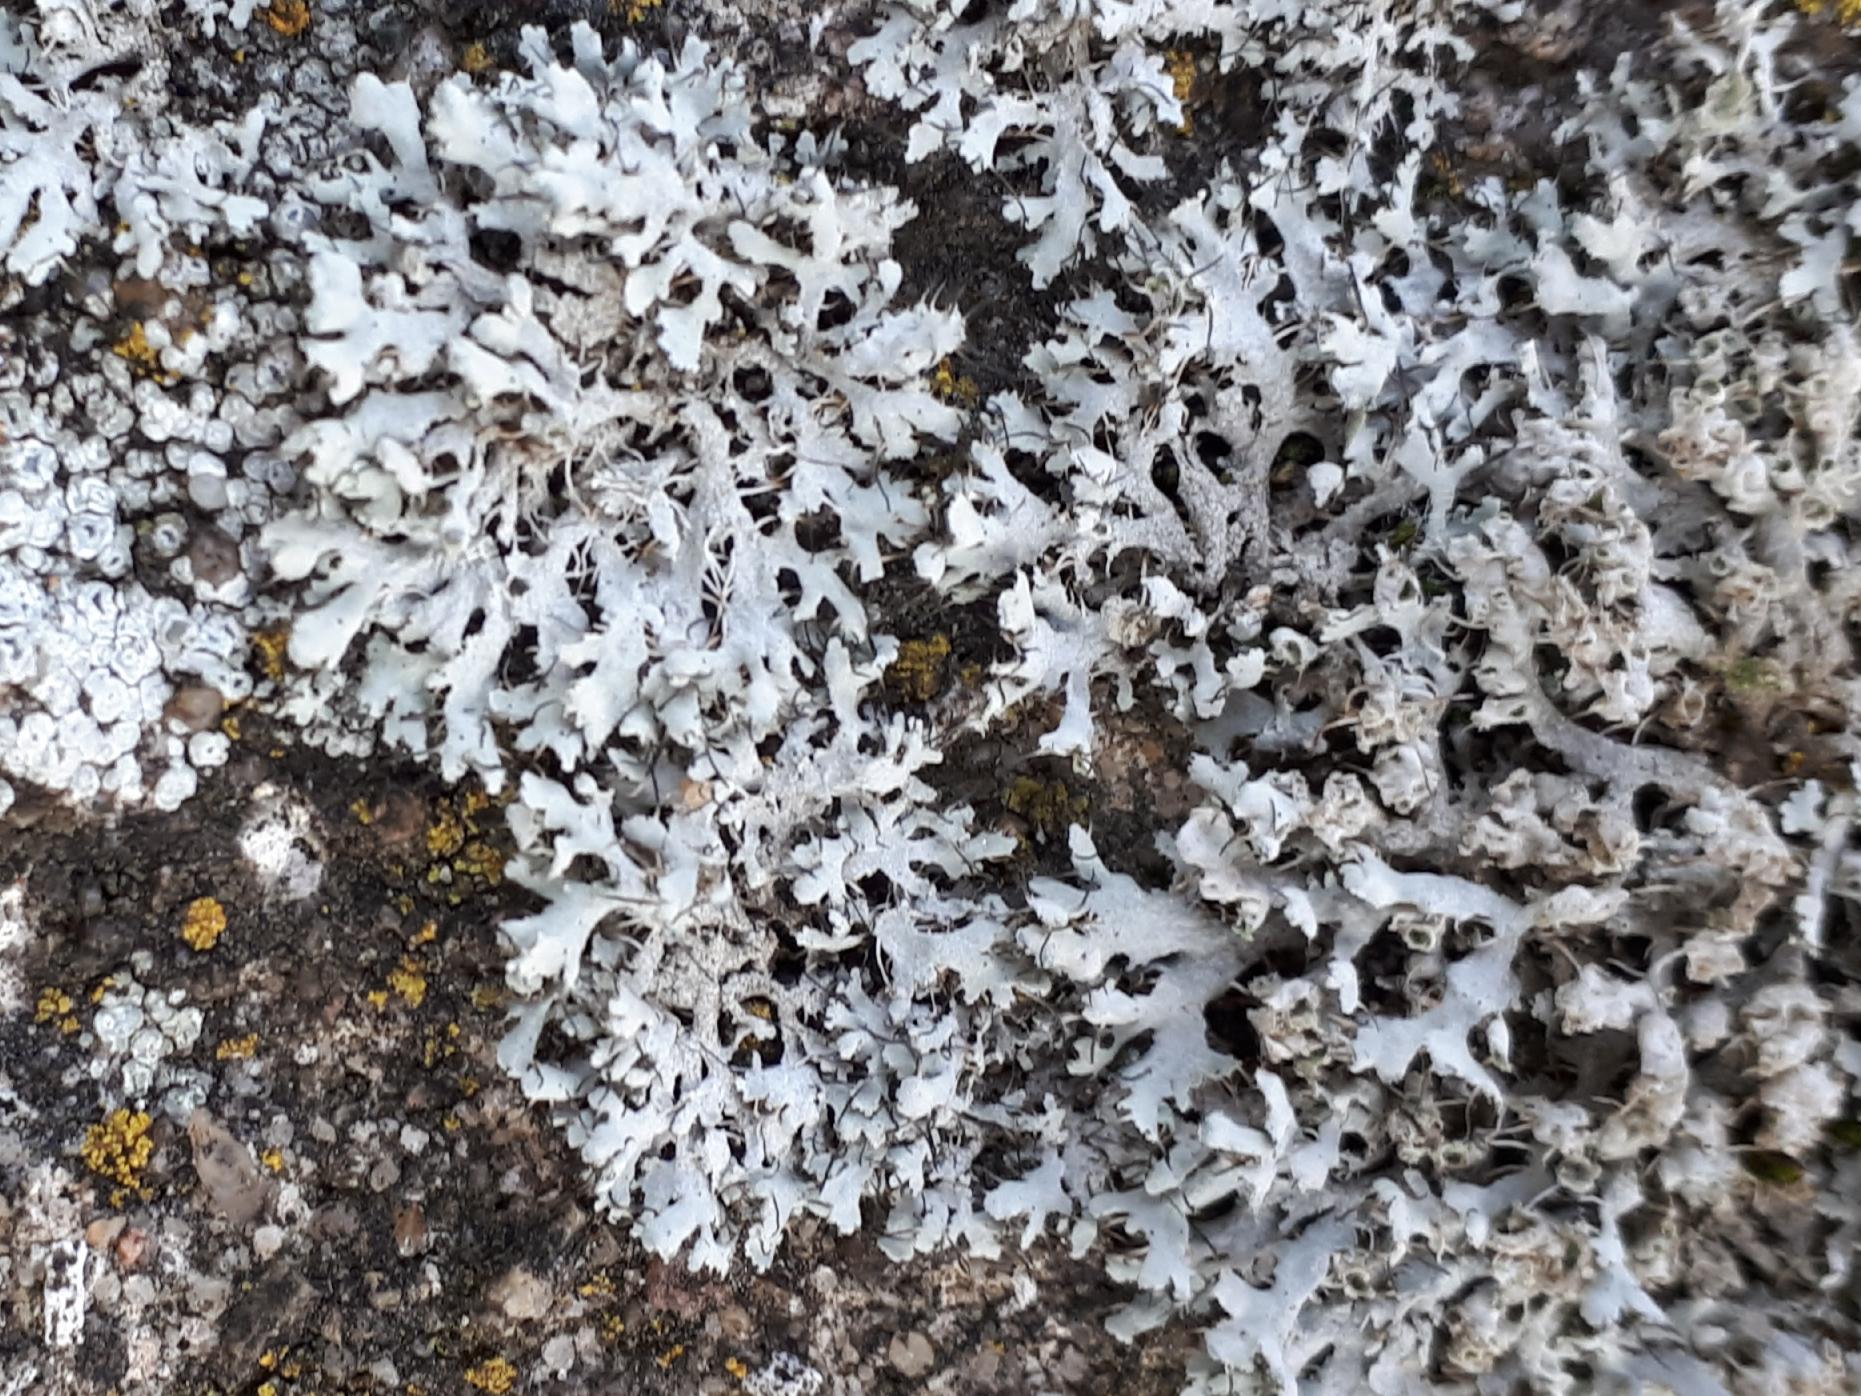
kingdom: Fungi
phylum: Ascomycota
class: Lecanoromycetes
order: Caliciales
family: Physciaceae
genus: Physcia
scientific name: Physcia adscendens
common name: hætte-rosetlav
